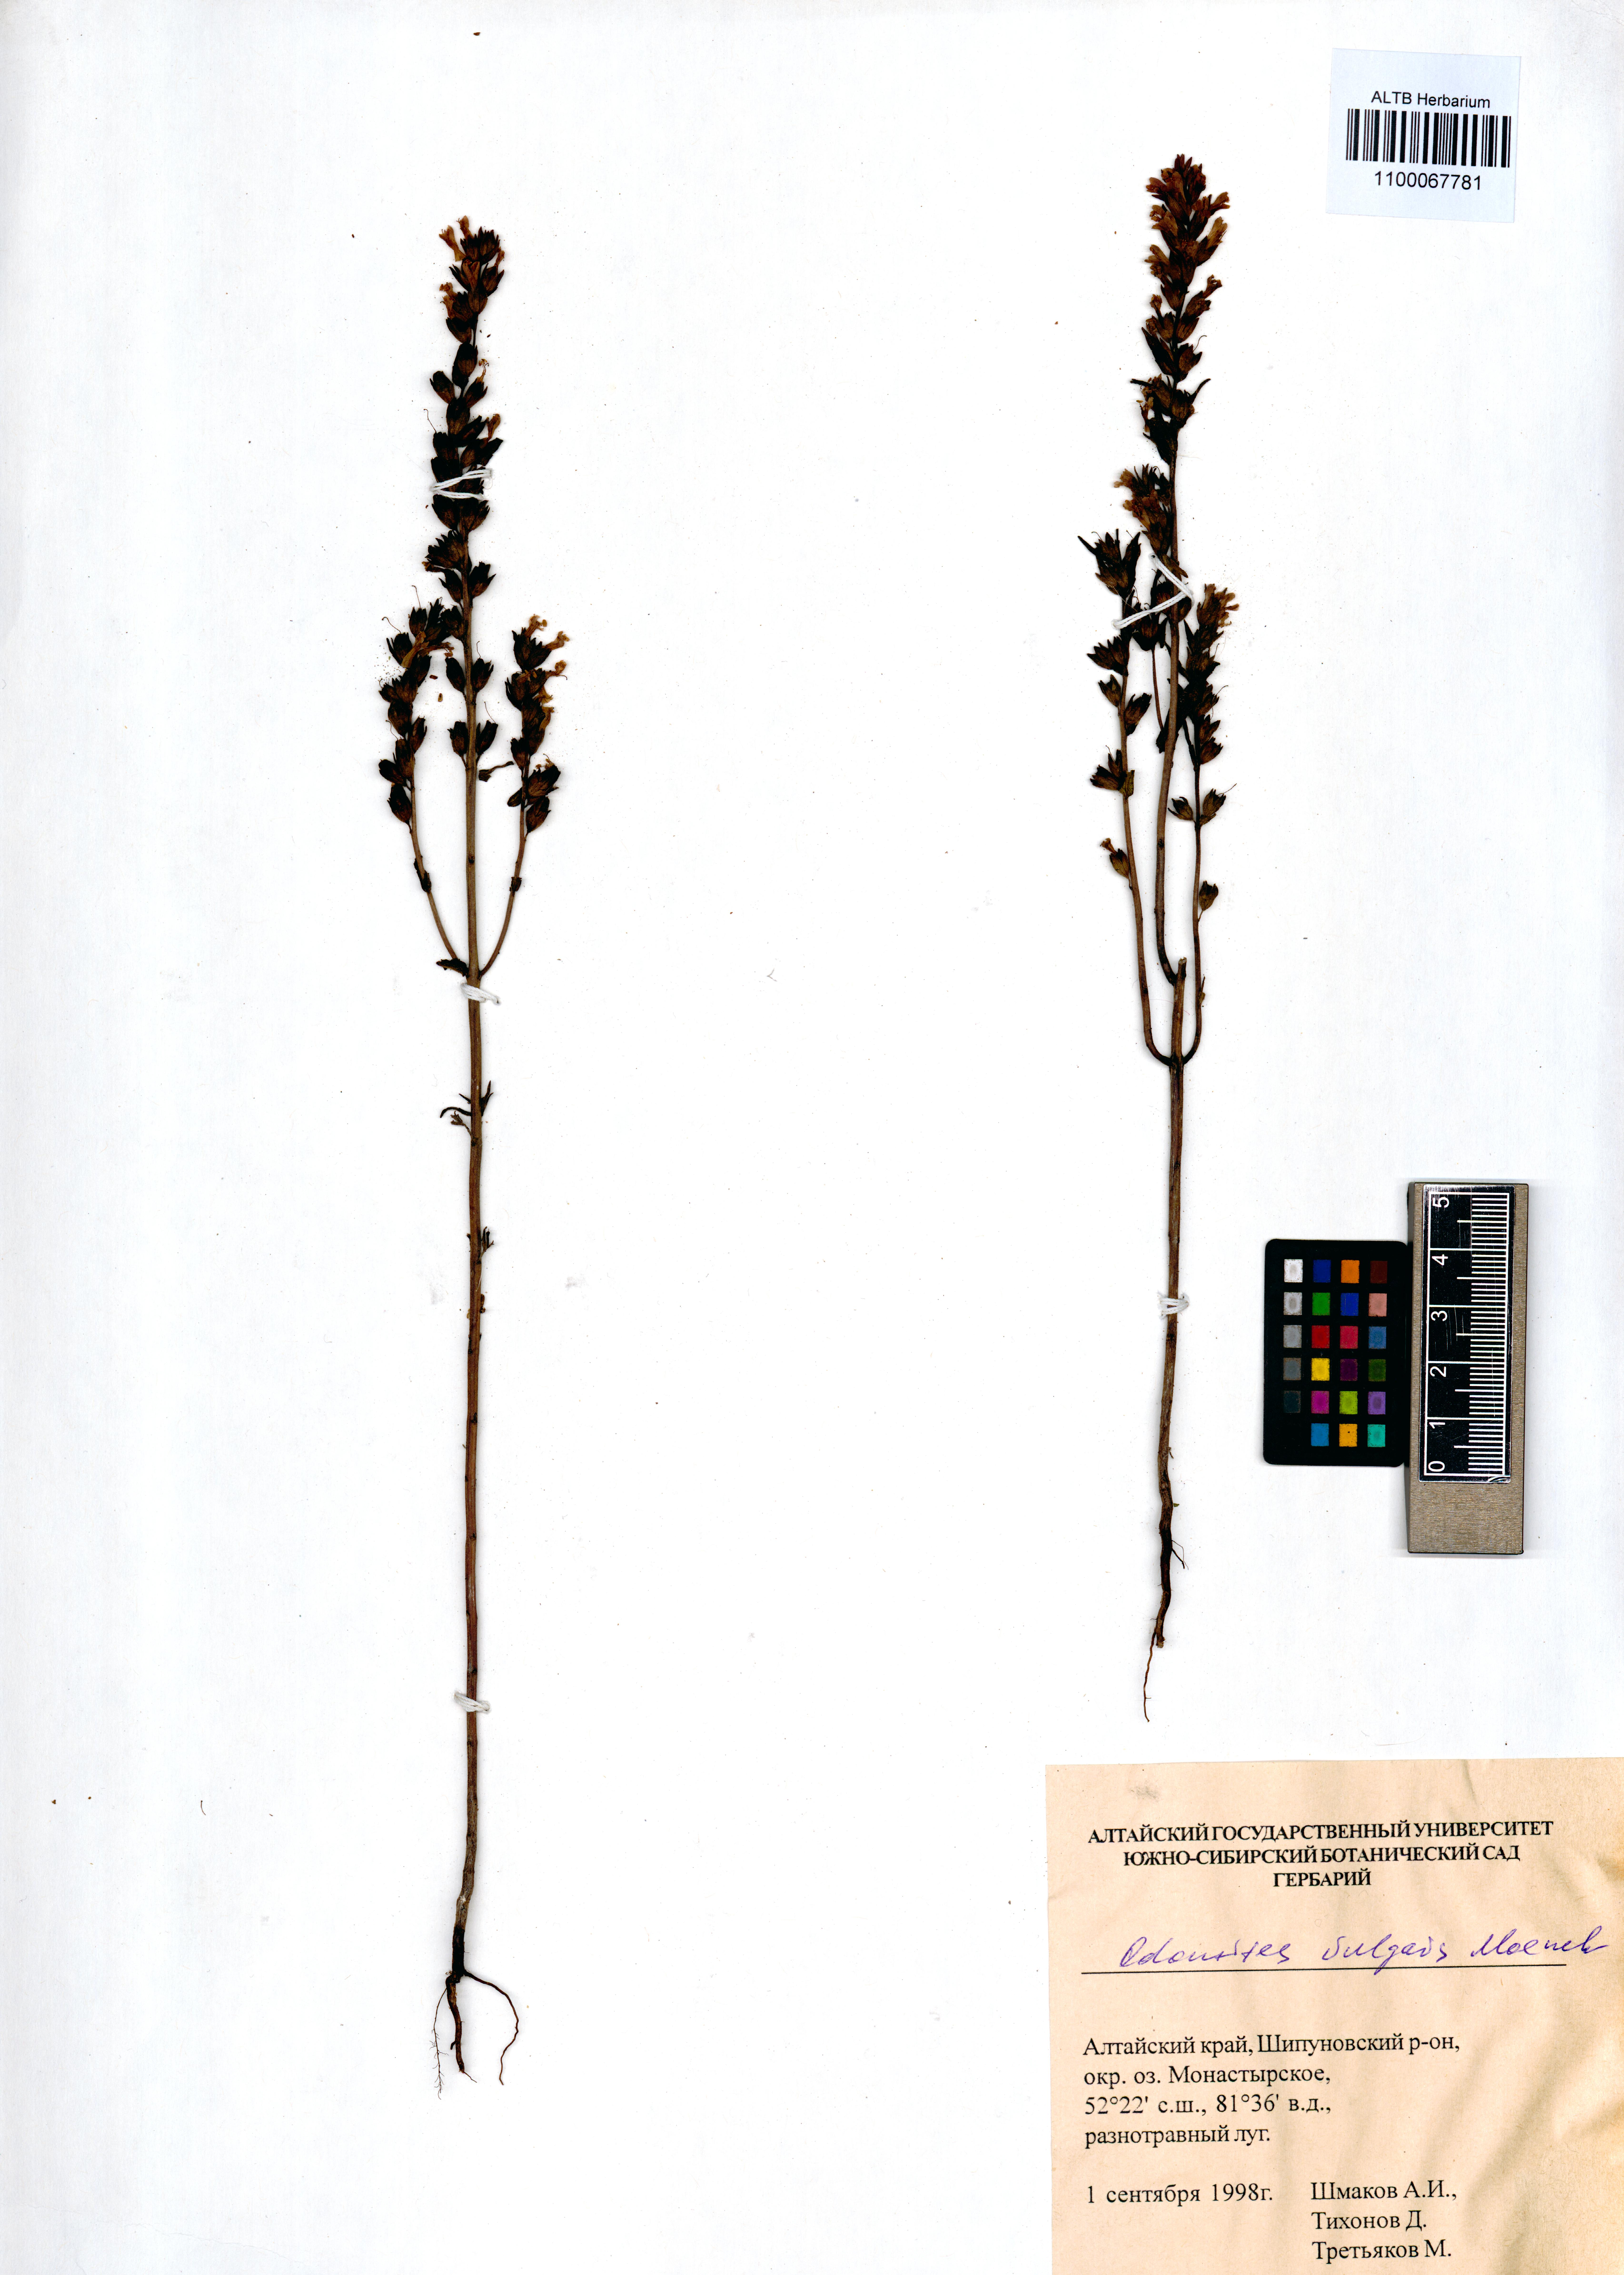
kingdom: Plantae
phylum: Tracheophyta
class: Magnoliopsida
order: Lamiales
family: Orobanchaceae
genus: Odontites
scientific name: Odontites vulgaris
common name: Broomrape
